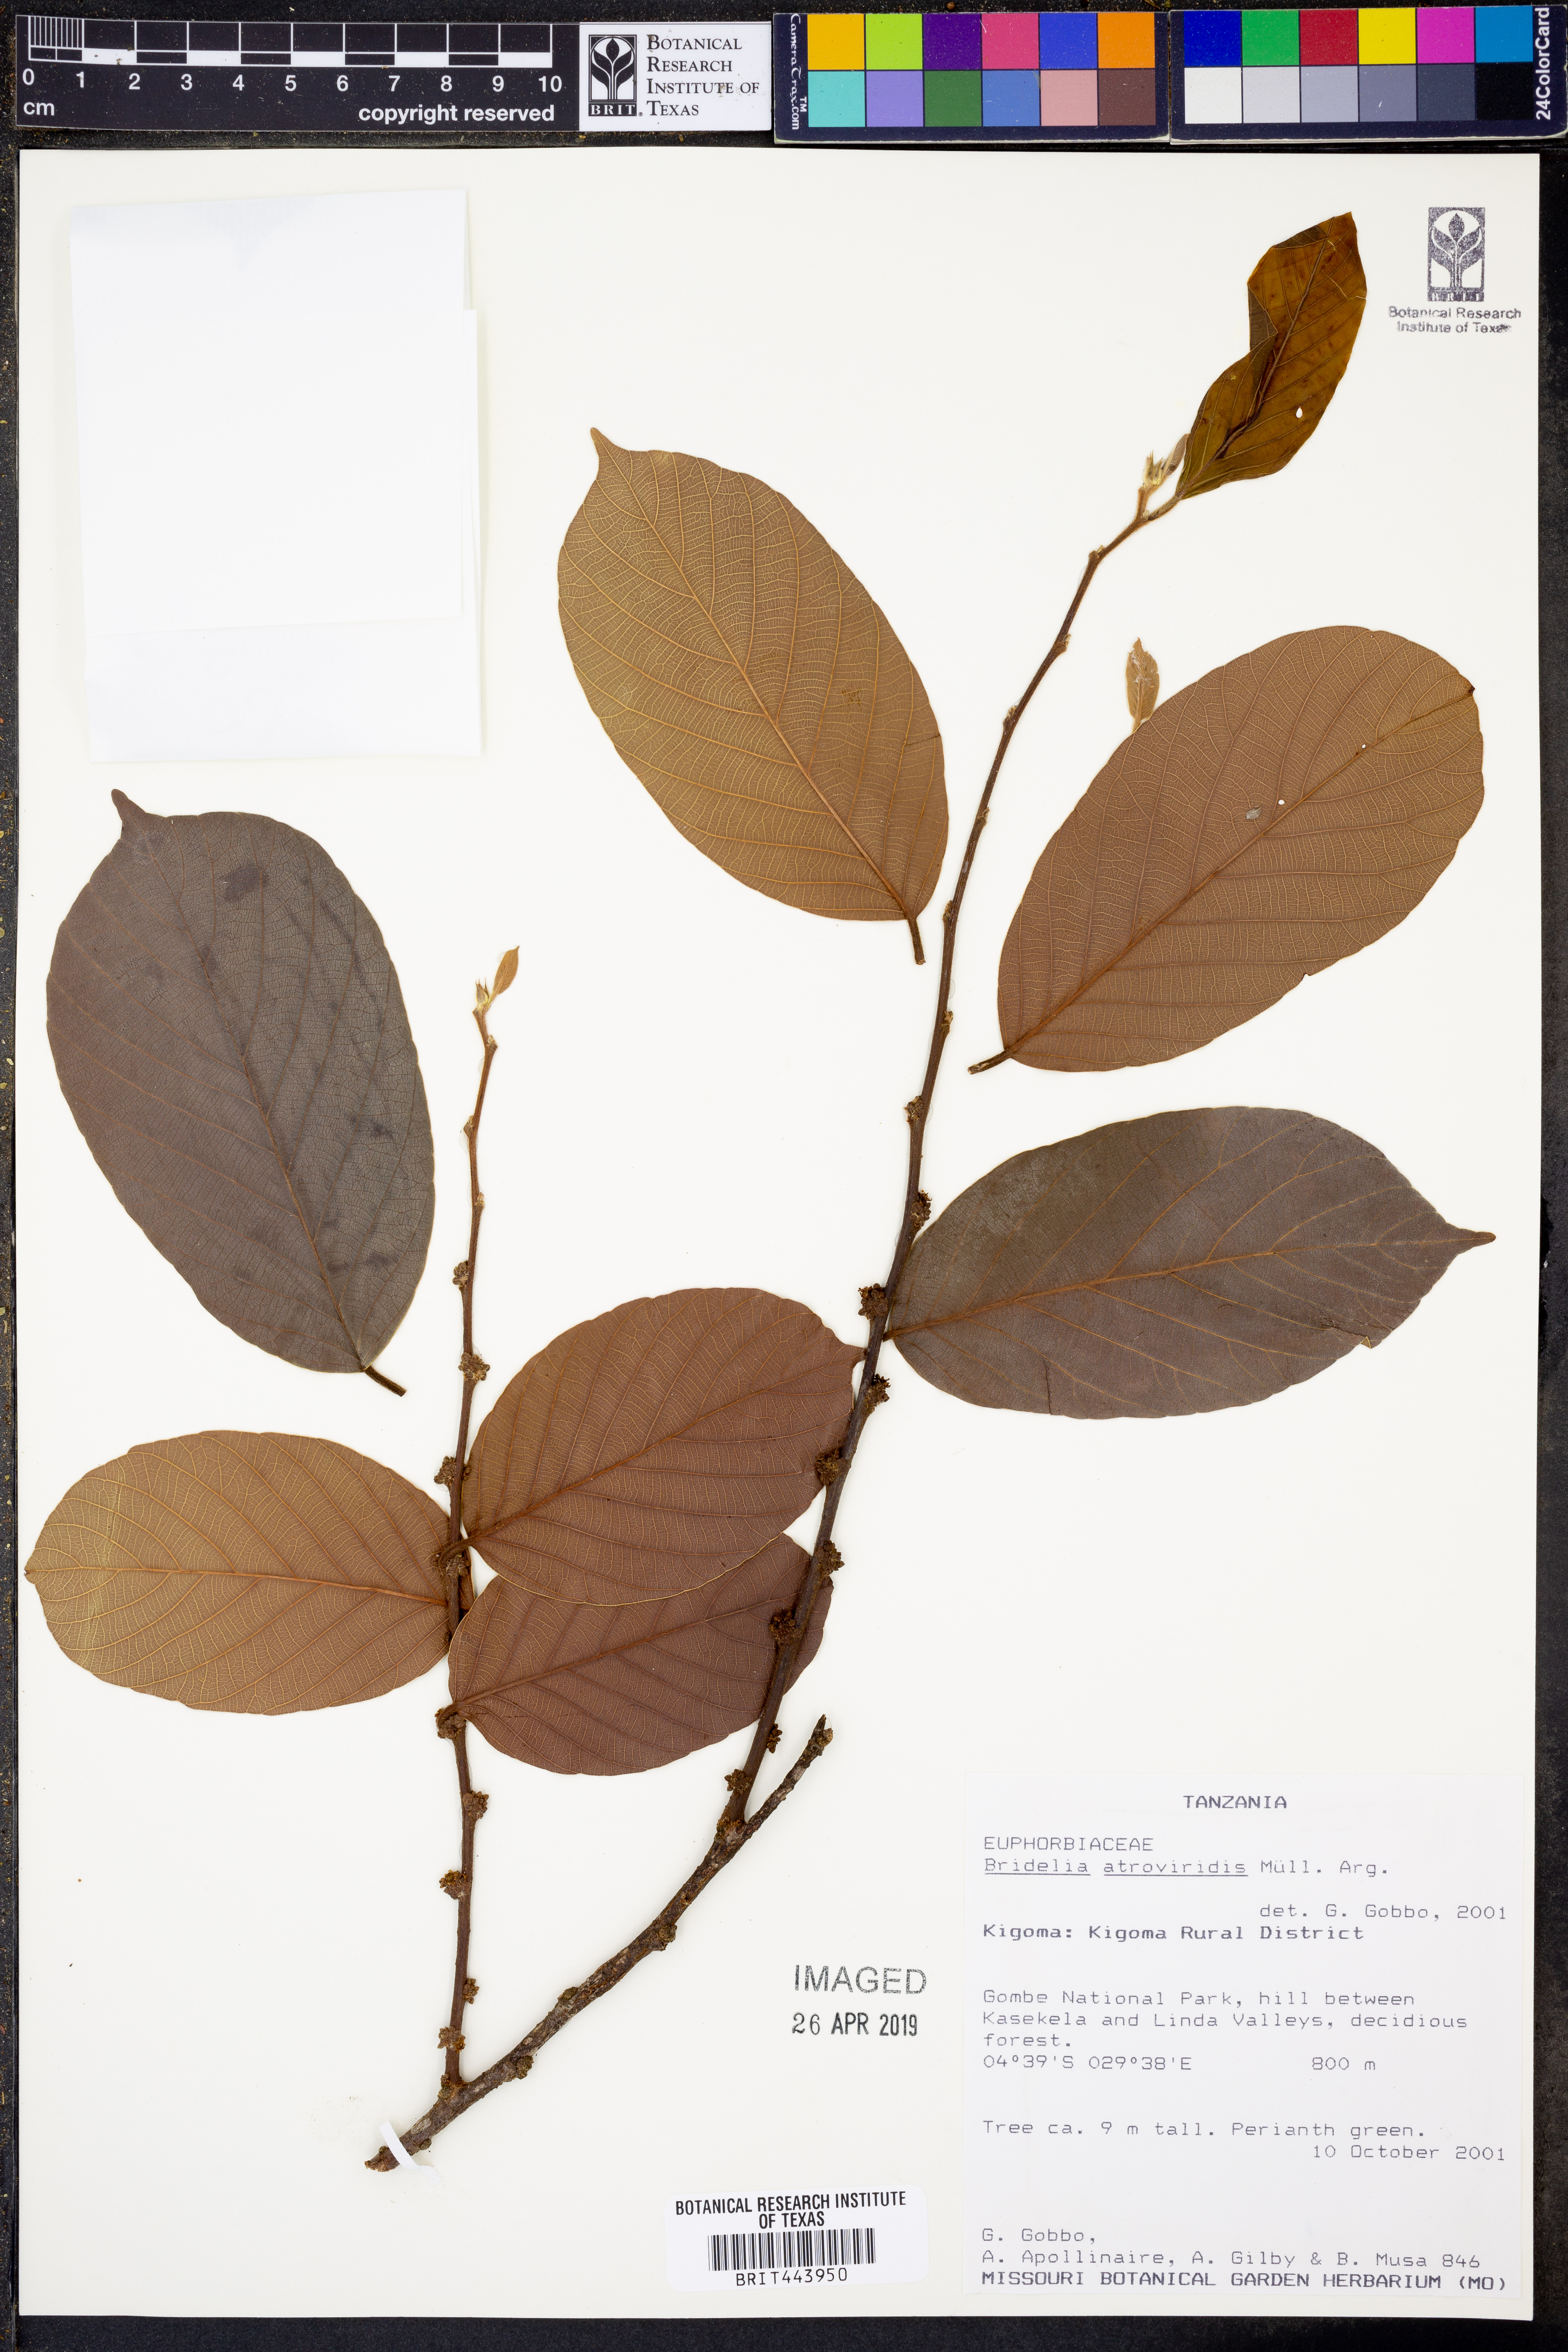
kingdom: Plantae
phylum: Tracheophyta
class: Magnoliopsida
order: Malpighiales
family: Phyllanthaceae
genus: Bridelia
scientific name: Bridelia atroviridis
